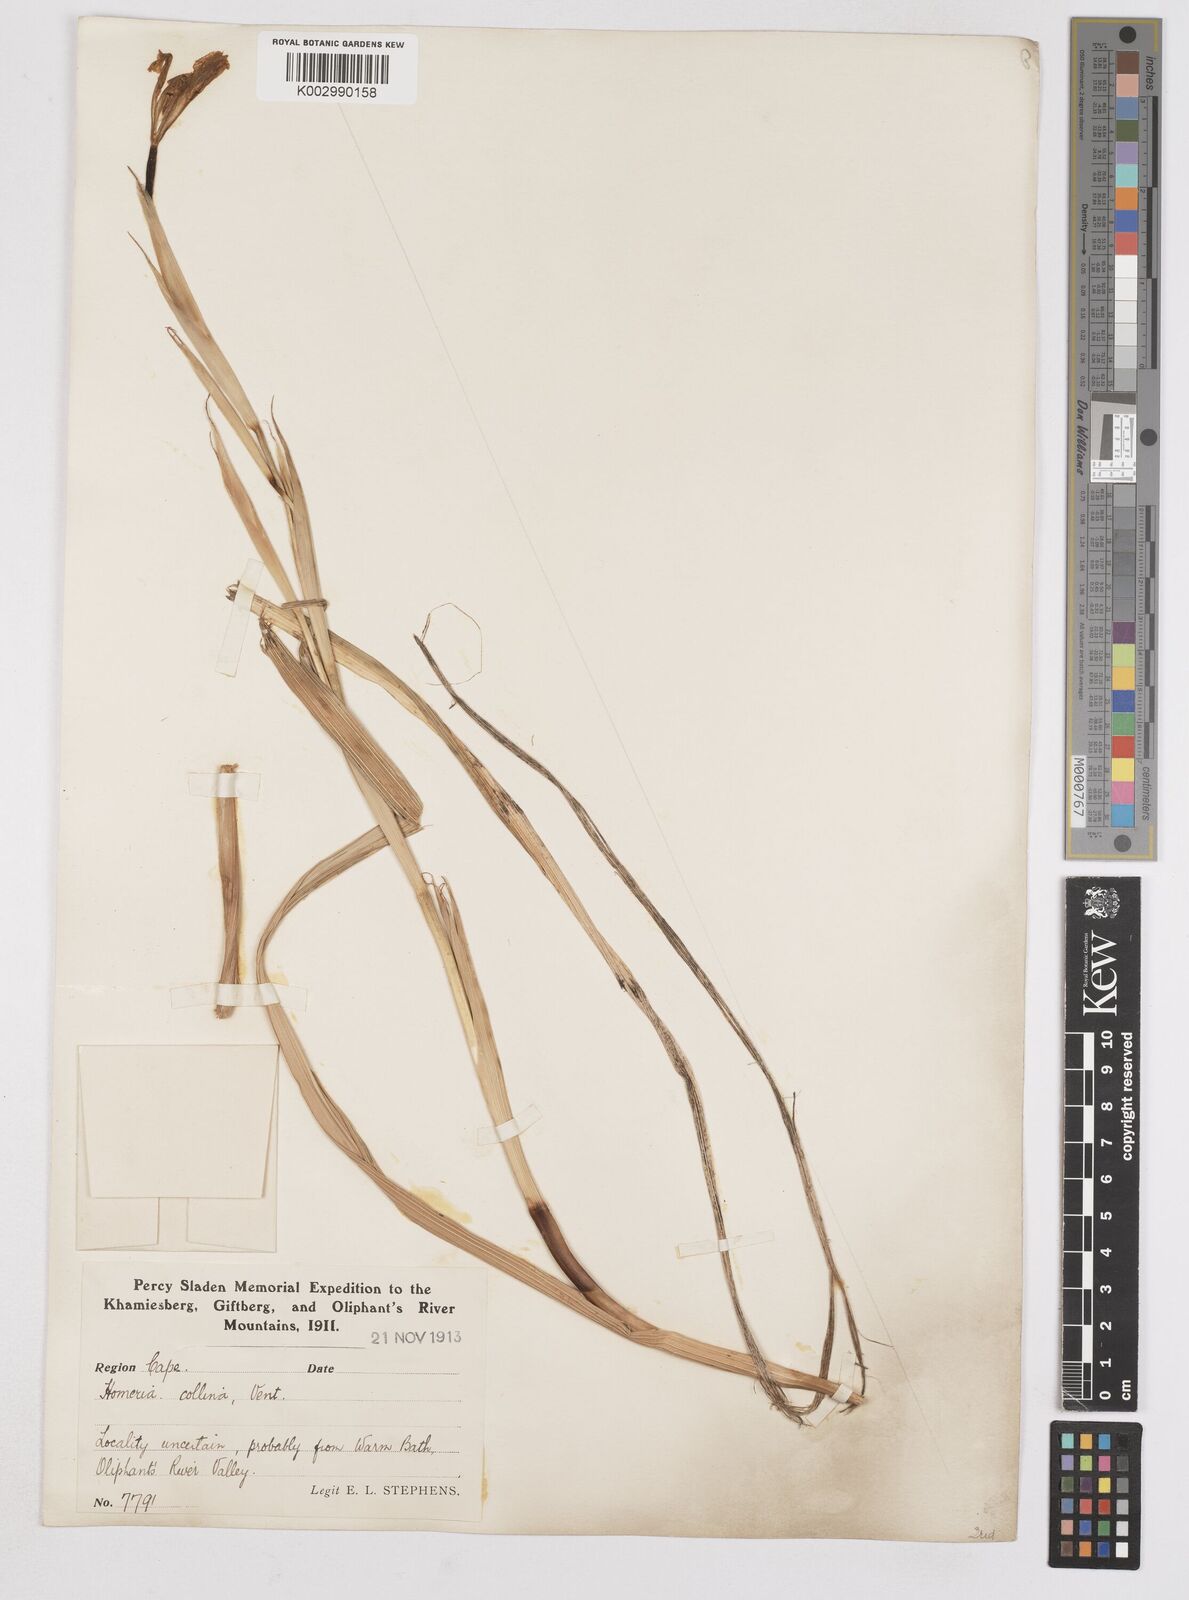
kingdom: Plantae
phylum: Tracheophyta
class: Liliopsida
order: Asparagales
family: Iridaceae
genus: Moraea
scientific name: Moraea collina
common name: Cape-tulip
